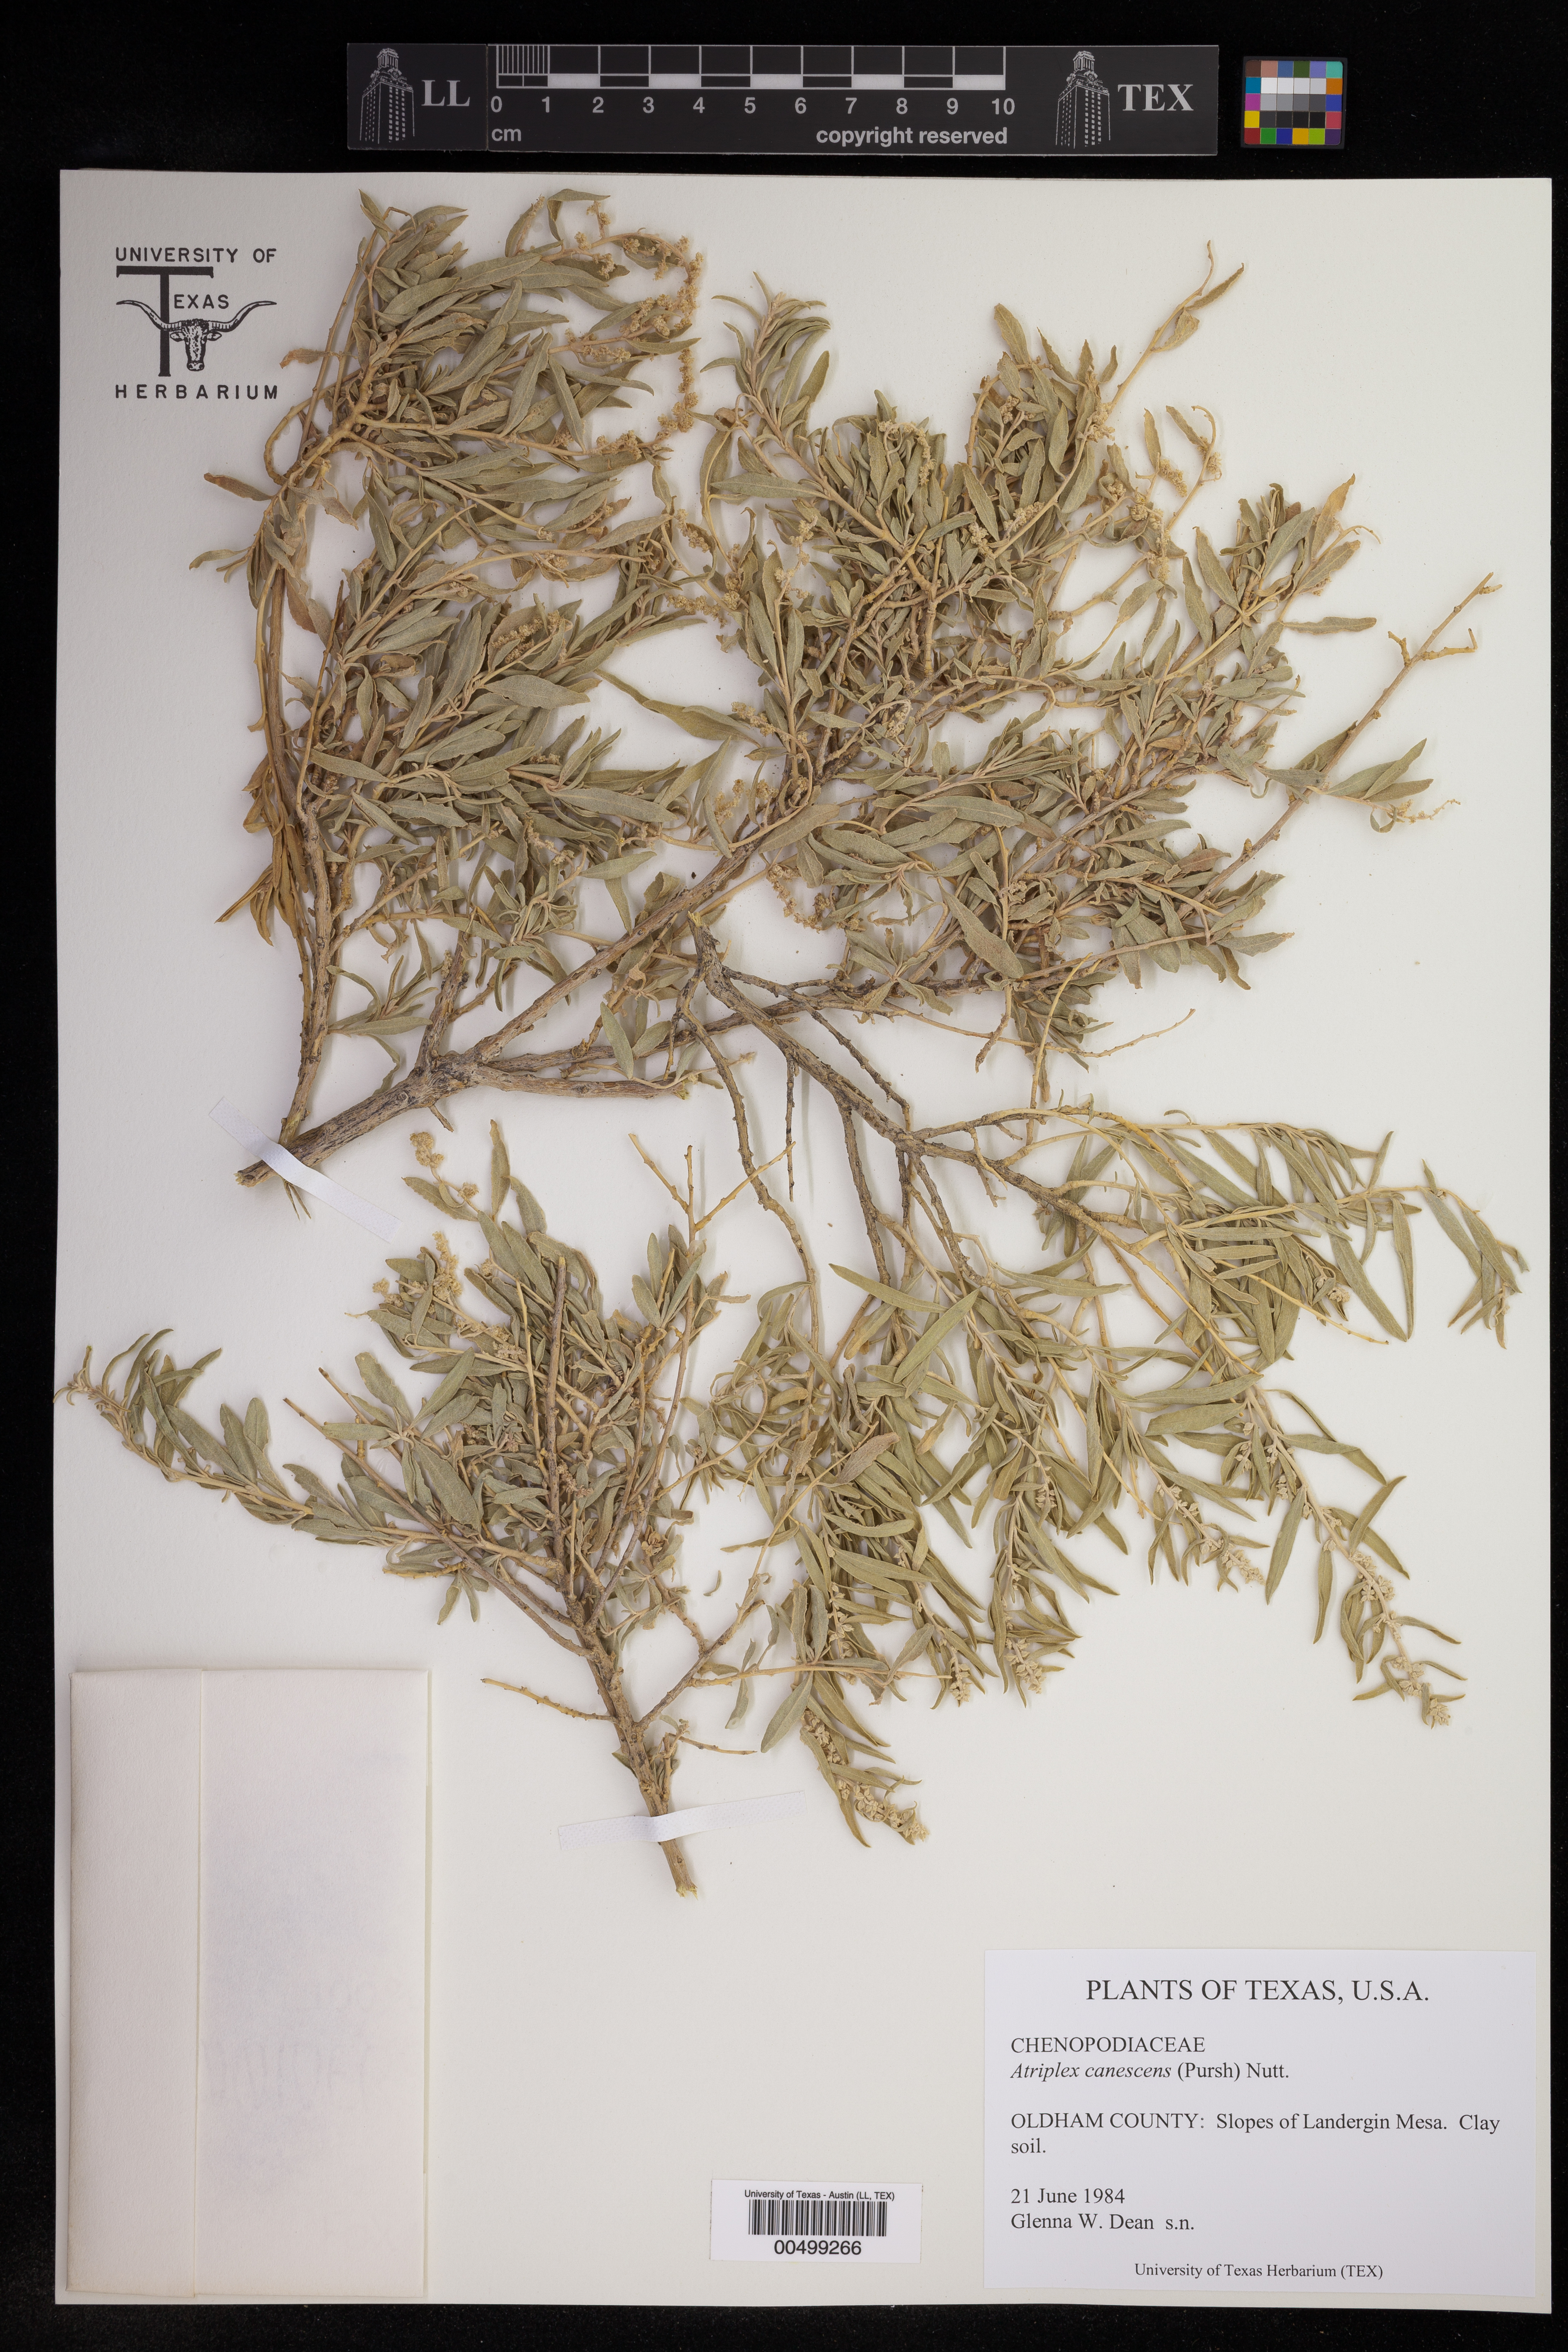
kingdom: Plantae
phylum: Tracheophyta
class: Magnoliopsida
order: Caryophyllales
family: Amaranthaceae
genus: Atriplex
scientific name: Atriplex canescens
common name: Four-wing saltbush
